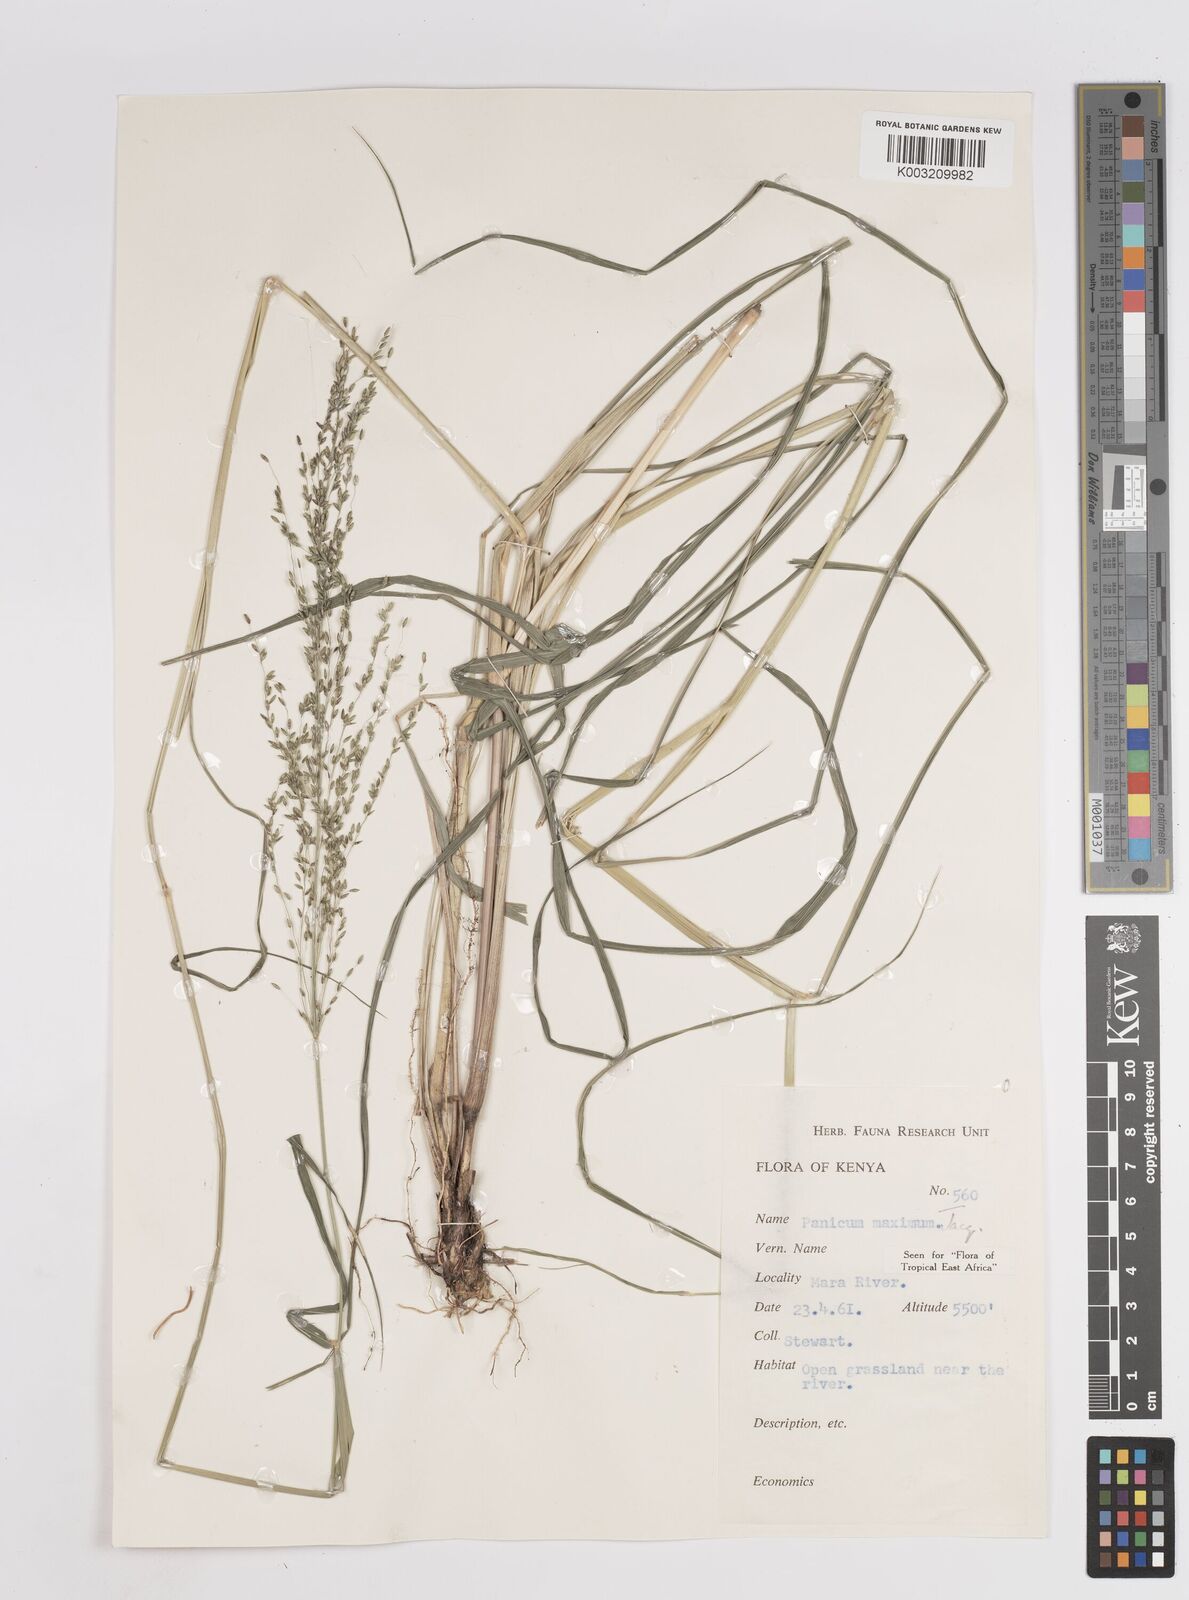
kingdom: Plantae
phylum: Tracheophyta
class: Liliopsida
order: Poales
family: Poaceae
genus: Megathyrsus
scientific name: Megathyrsus maximus
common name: Guineagrass
